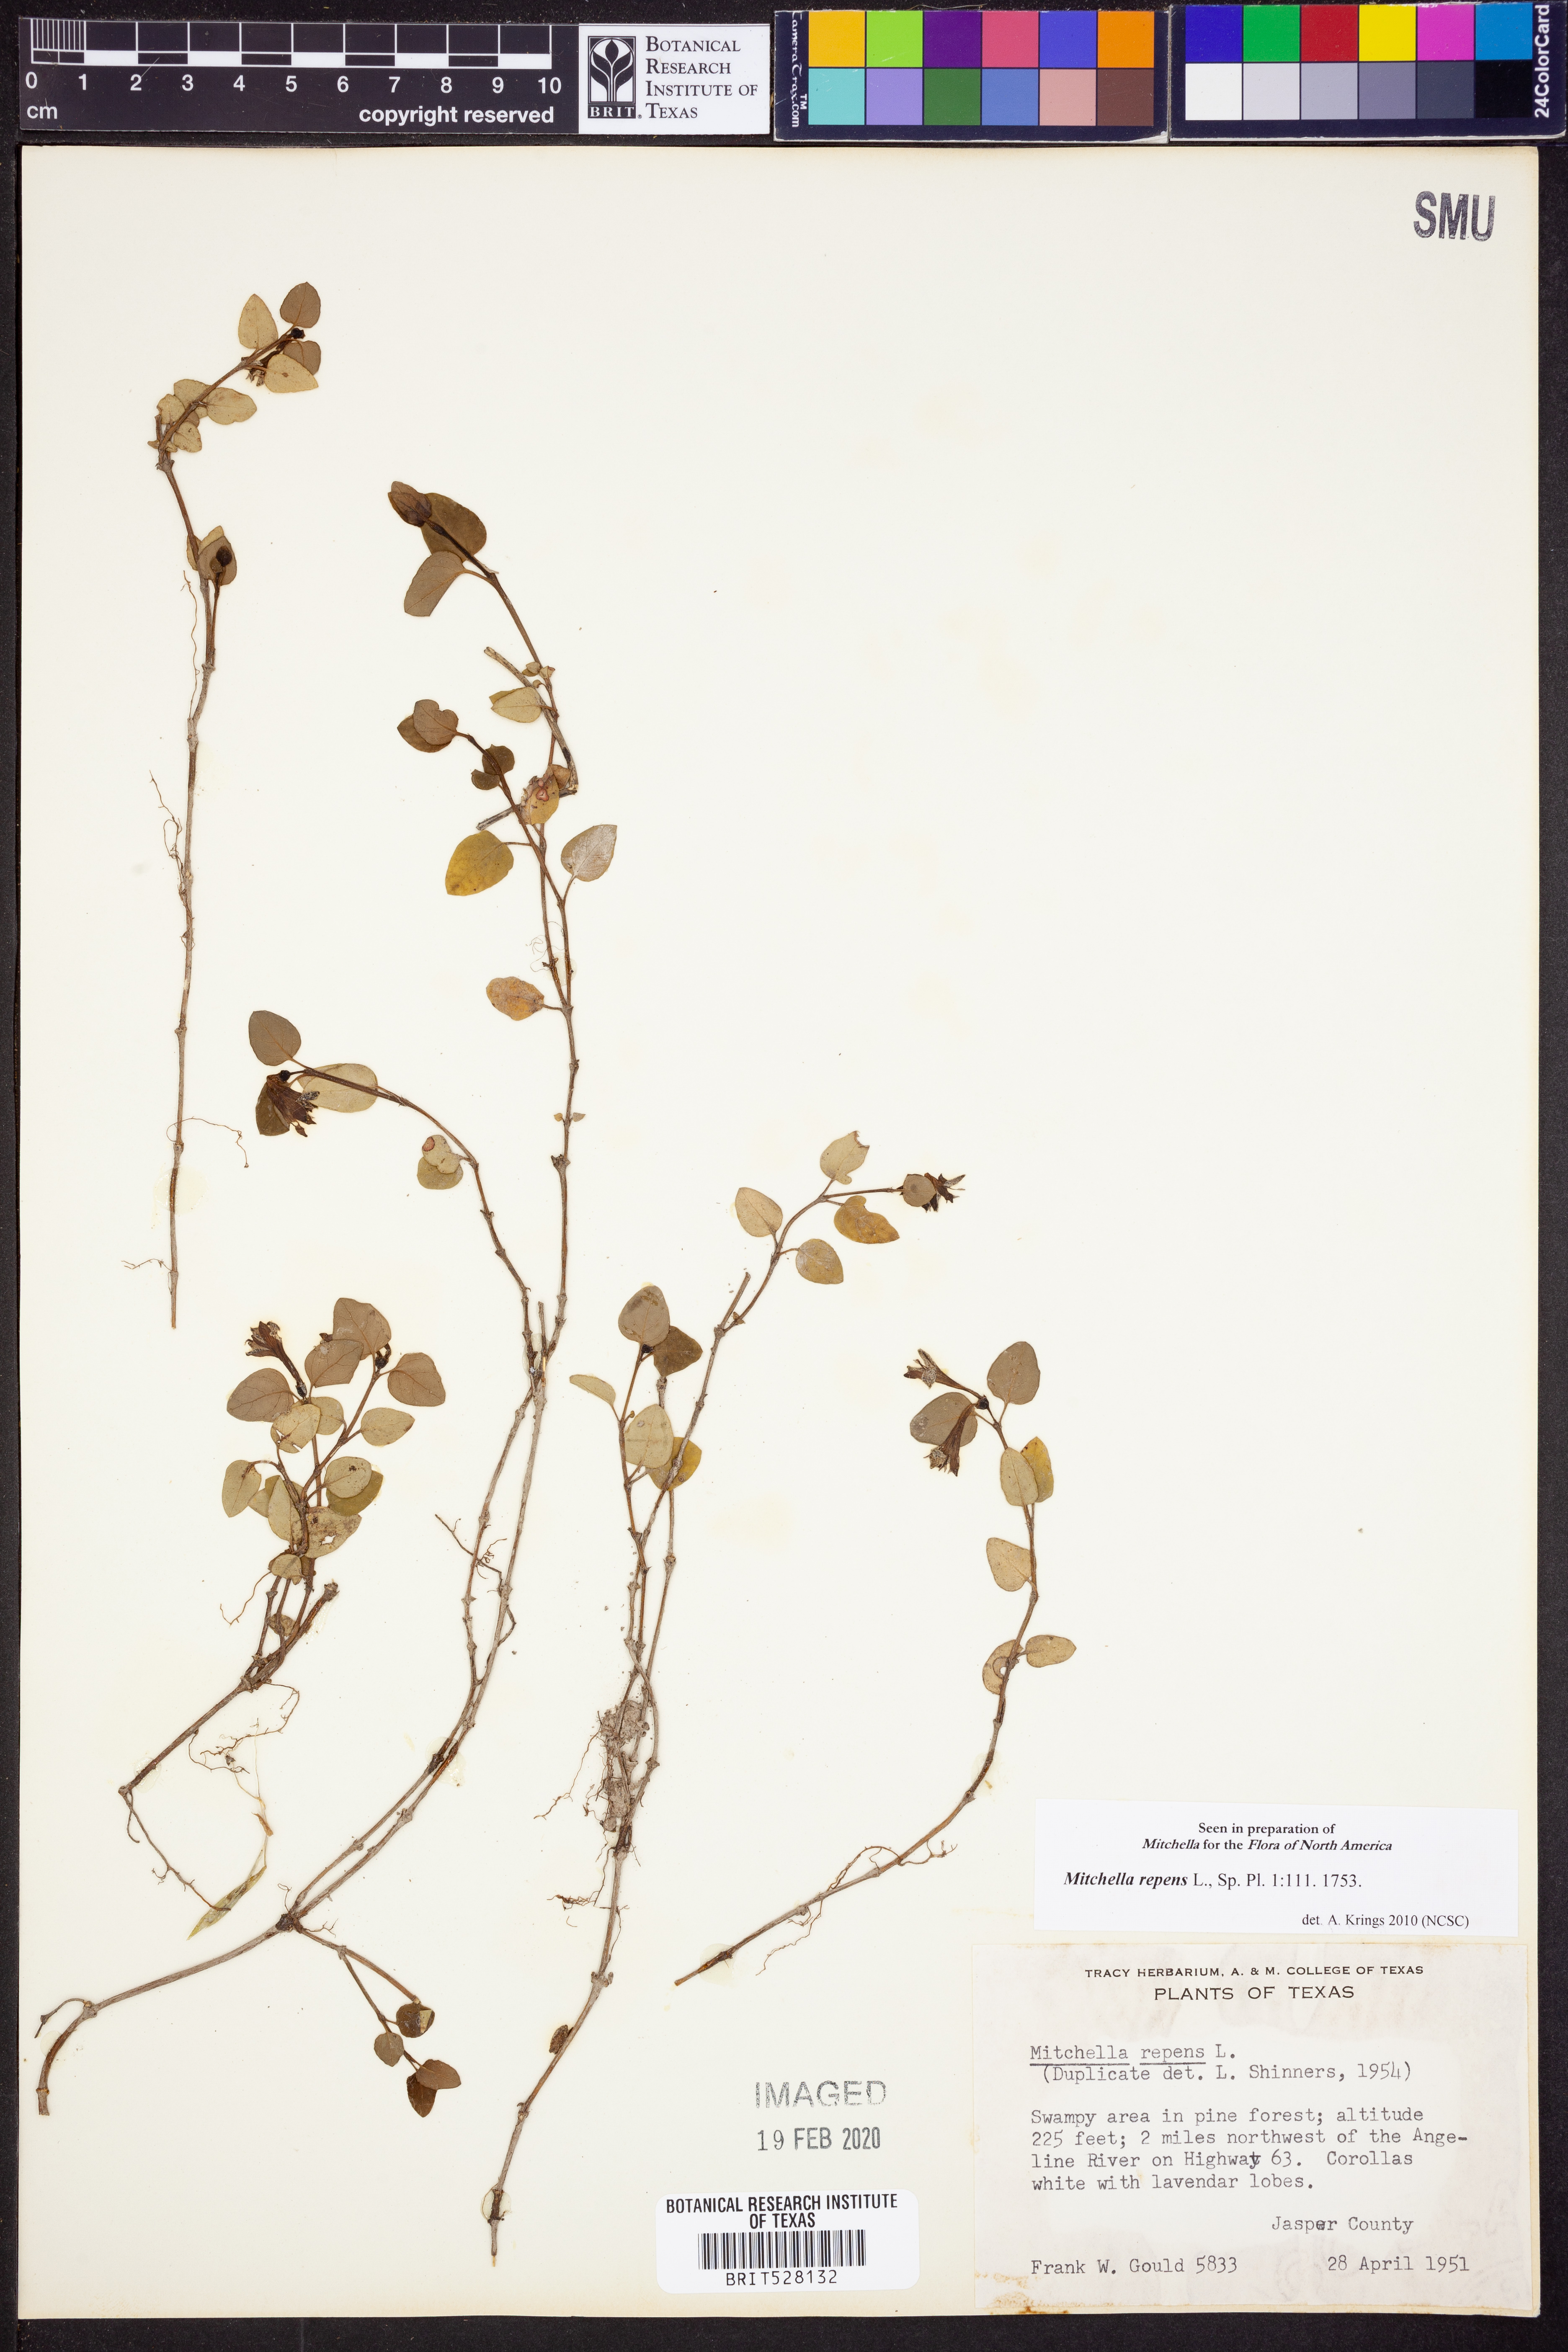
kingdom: Plantae
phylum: Tracheophyta
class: Magnoliopsida
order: Gentianales
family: Rubiaceae
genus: Mitchella
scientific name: Mitchella repens
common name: Partridge-berry
